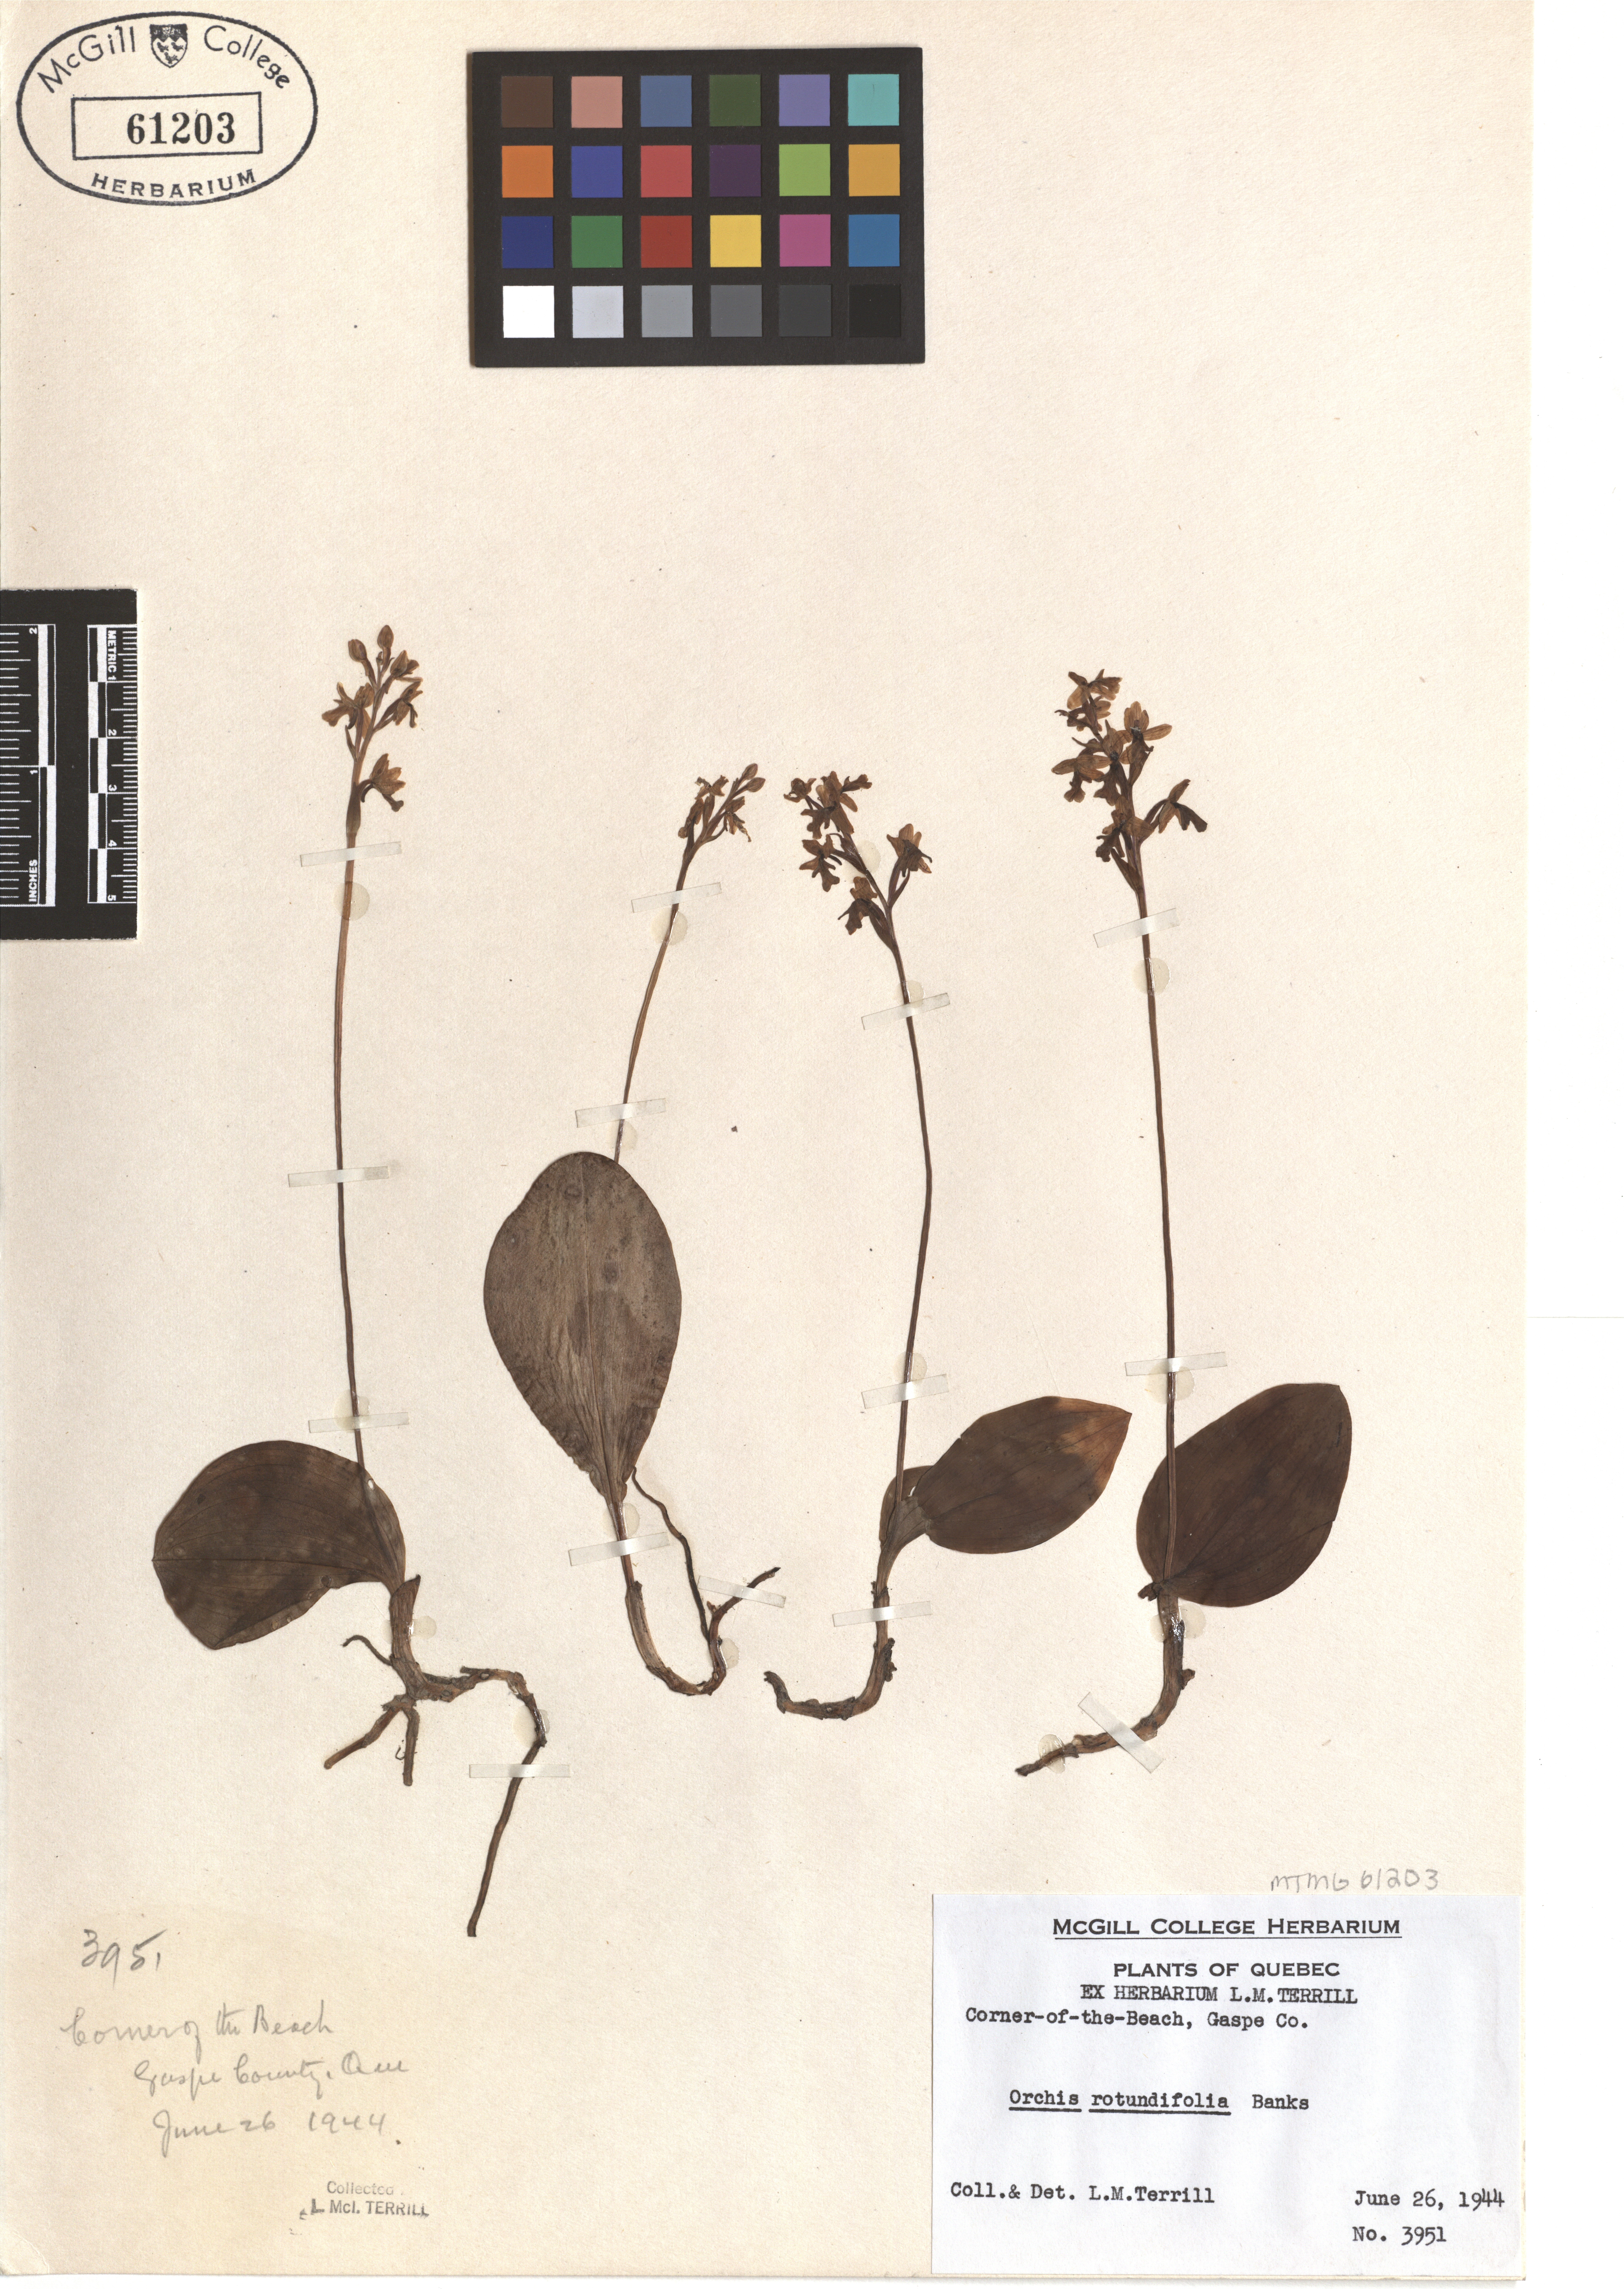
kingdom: Plantae
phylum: Tracheophyta
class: Liliopsida
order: Asparagales
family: Orchidaceae
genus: Galearis
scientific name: Galearis rotundifolia
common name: One-leaved orchis
